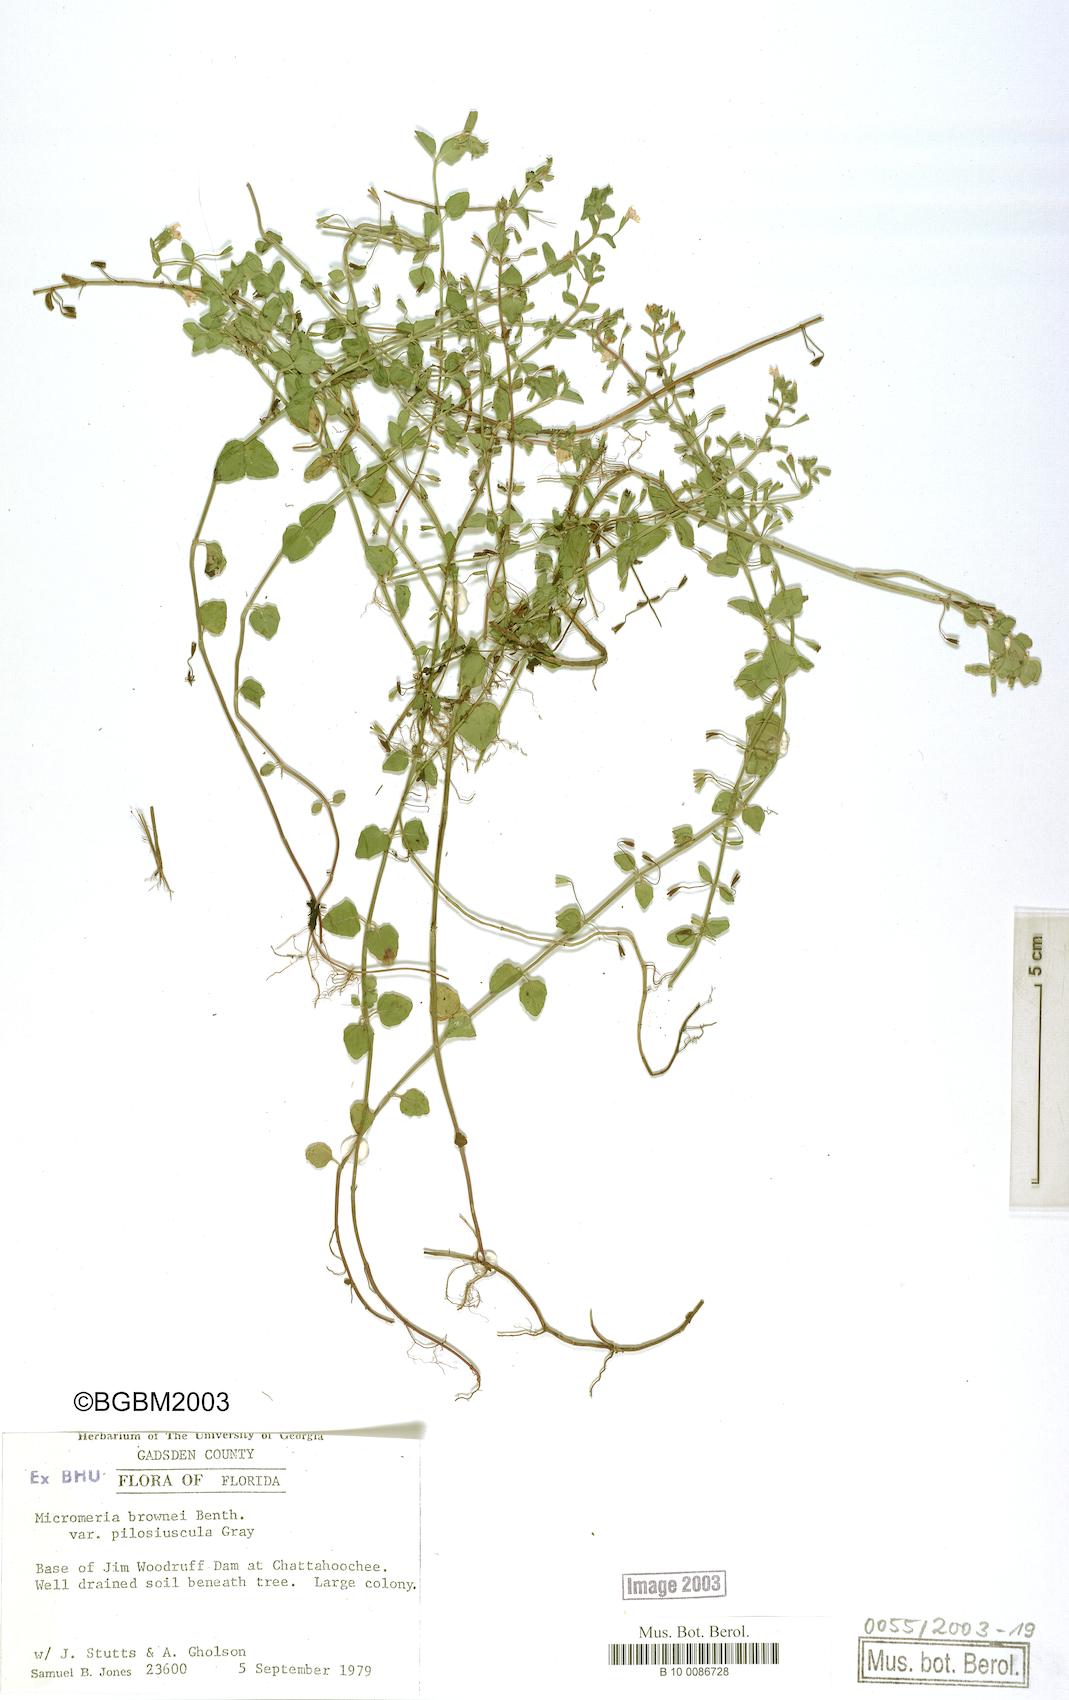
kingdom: Plantae
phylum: Tracheophyta
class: Magnoliopsida
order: Lamiales
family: Lamiaceae
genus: Clinopodium
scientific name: Clinopodium brownei
